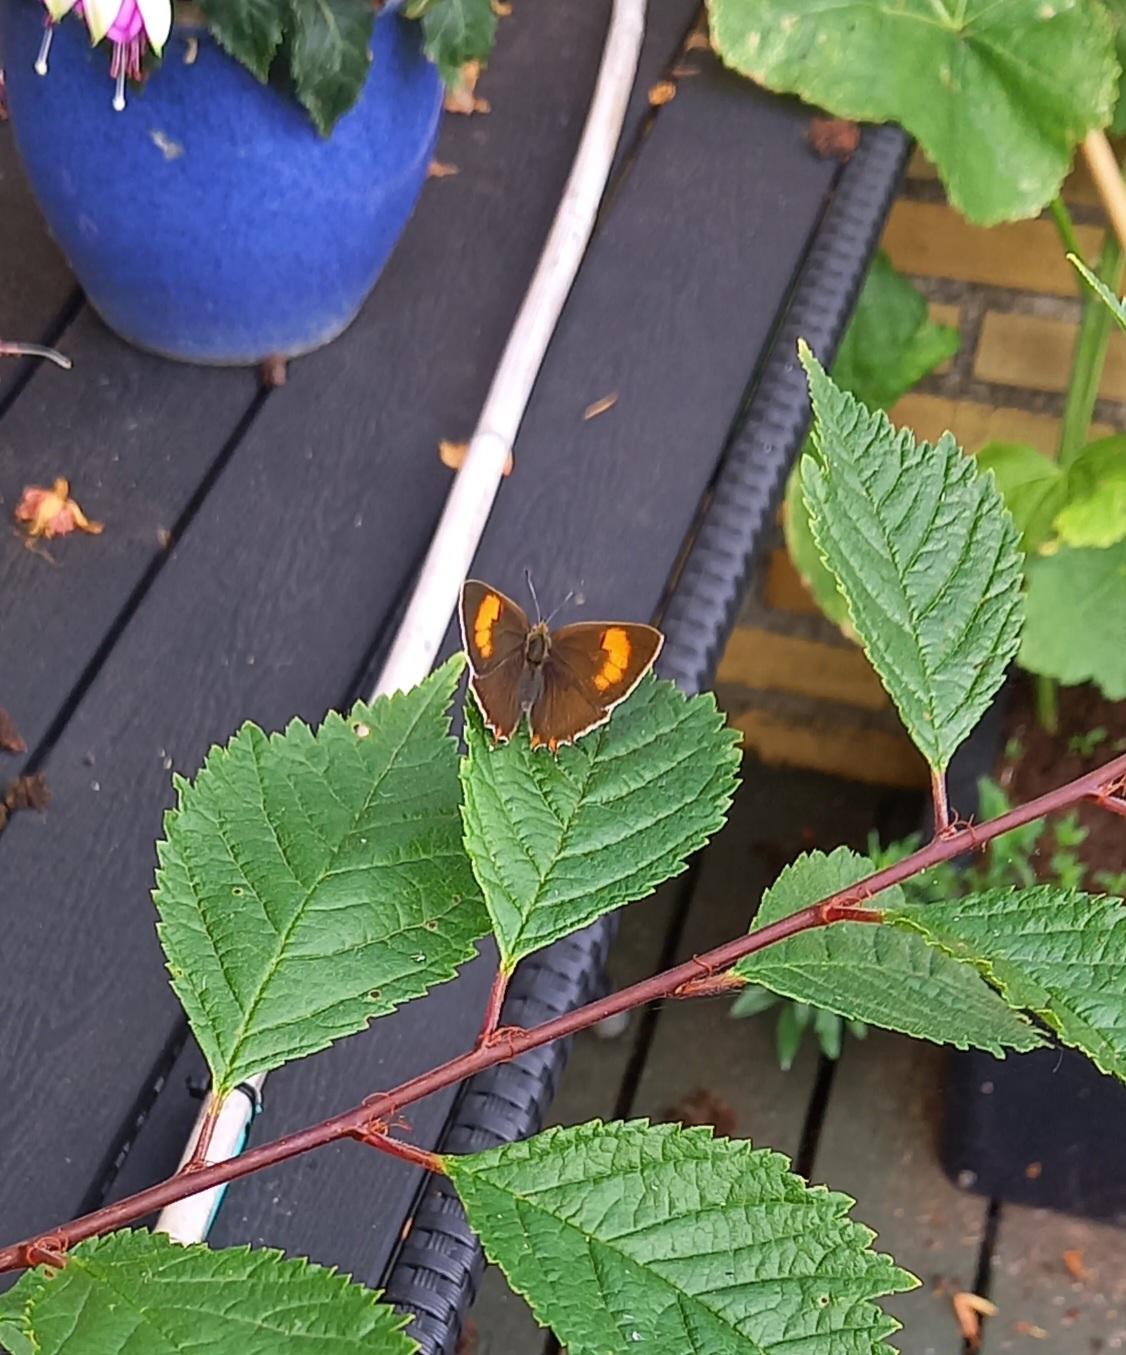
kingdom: Animalia
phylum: Arthropoda
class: Insecta
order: Lepidoptera
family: Lycaenidae
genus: Thecla
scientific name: Thecla betulae
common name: Guldhale
